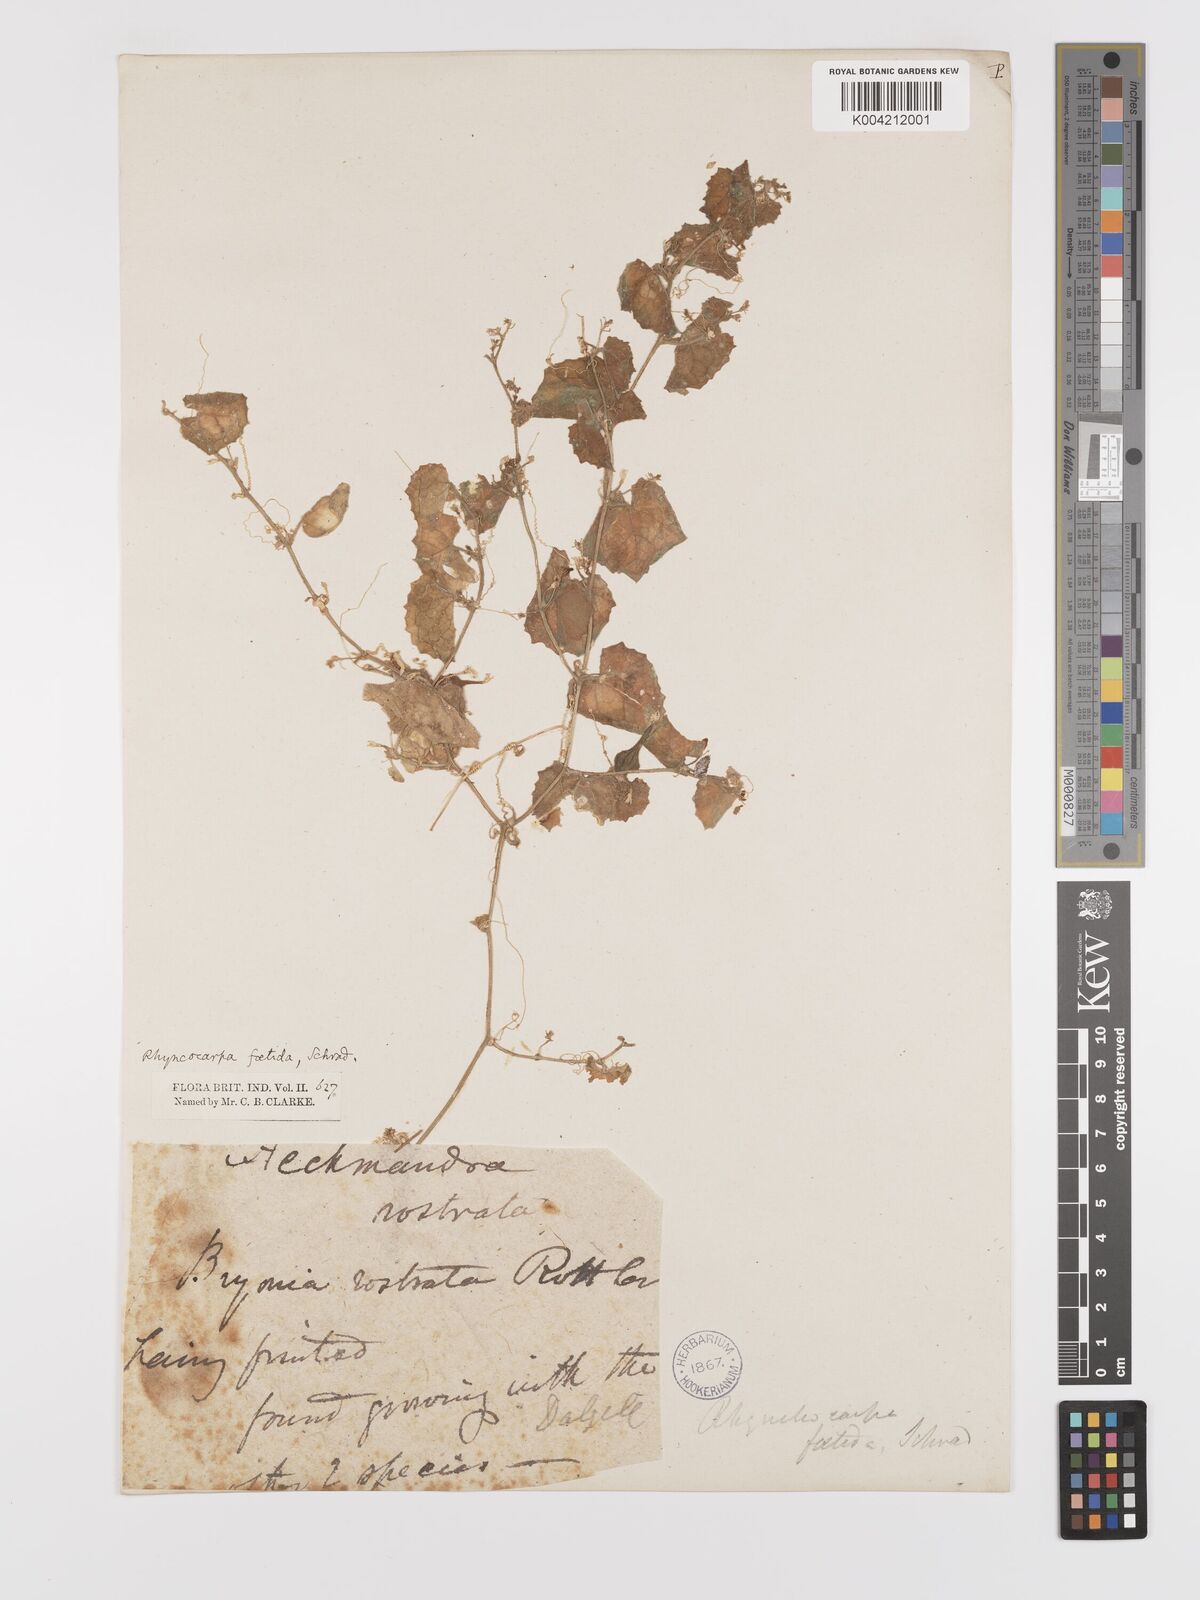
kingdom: Plantae
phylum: Tracheophyta
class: Magnoliopsida
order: Cucurbitales
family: Cucurbitaceae
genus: Kedrostis
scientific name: Kedrostis foetidissima
